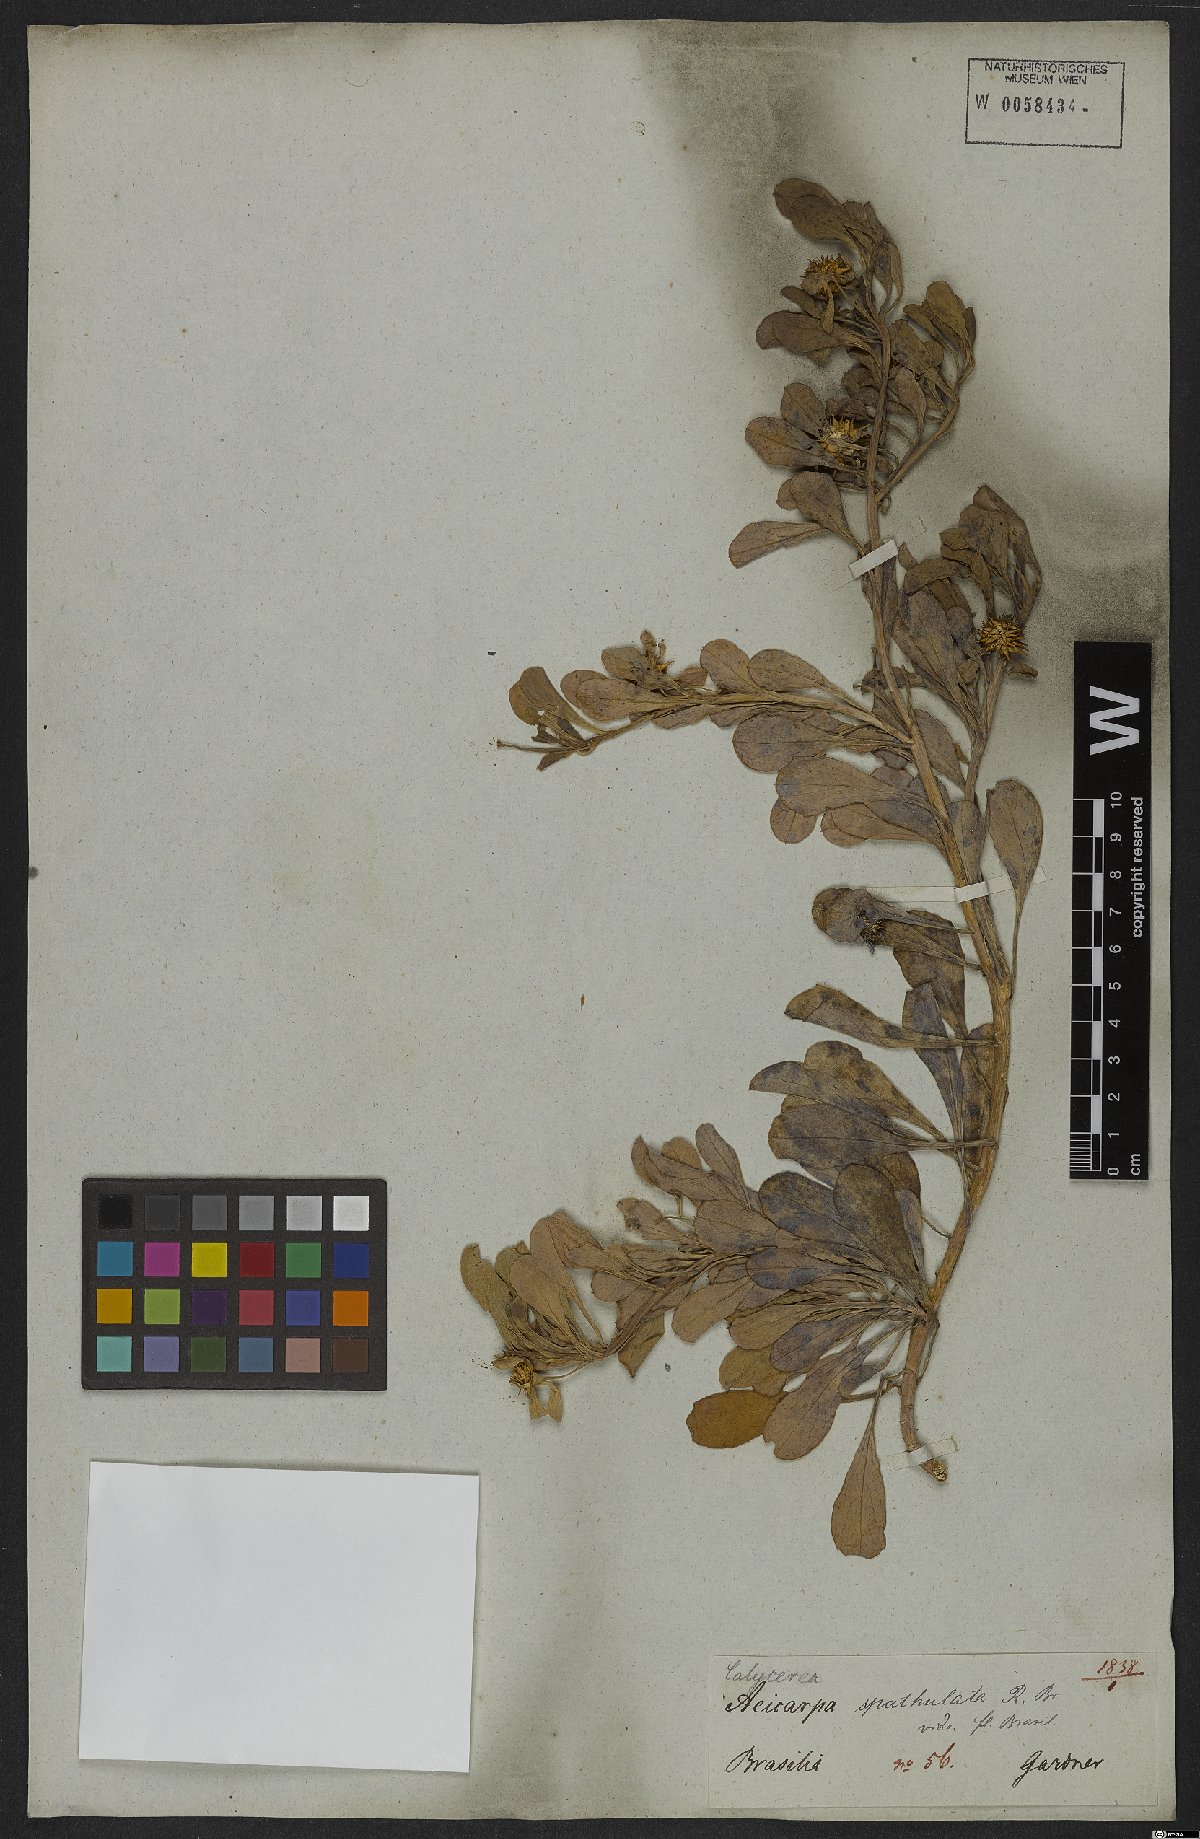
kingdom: Plantae
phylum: Tracheophyta
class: Magnoliopsida
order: Asterales
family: Calyceraceae
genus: Acicarpha
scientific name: Acicarpha spathulata
